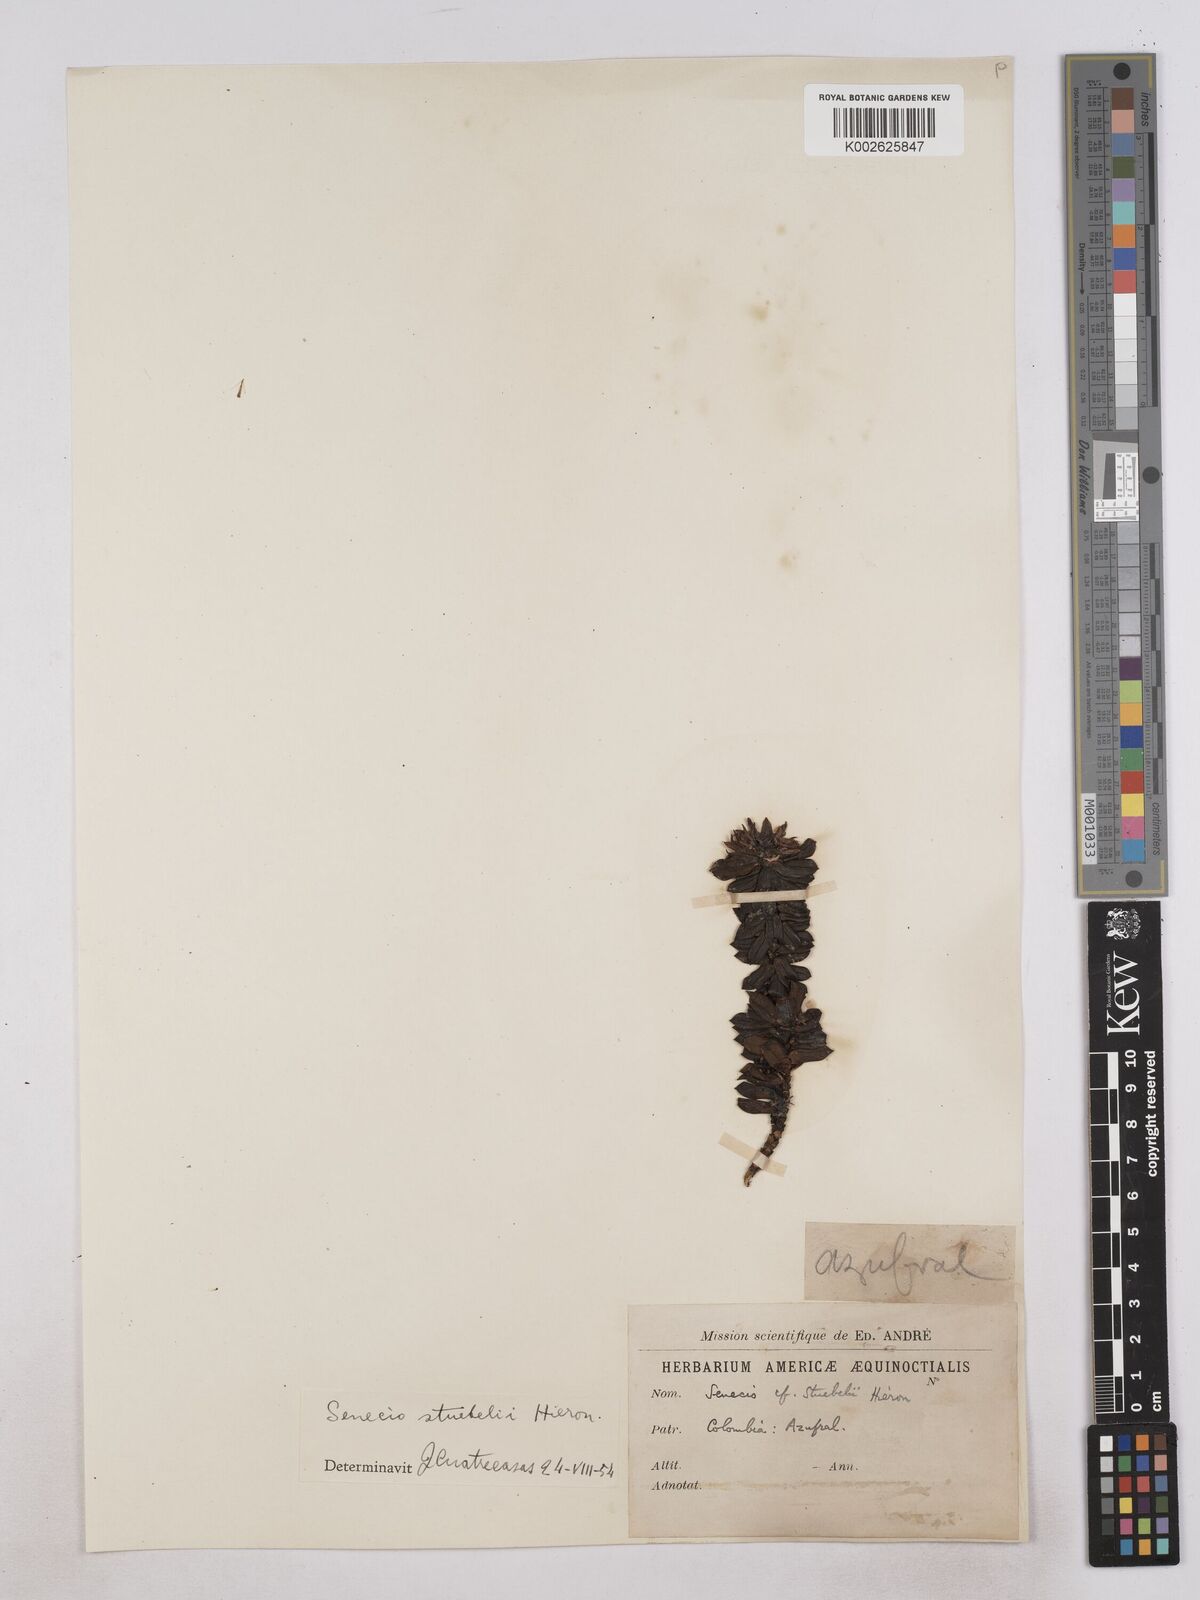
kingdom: Plantae
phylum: Tracheophyta
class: Magnoliopsida
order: Asterales
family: Asteraceae
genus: Monticalia
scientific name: Monticalia stuebelii
